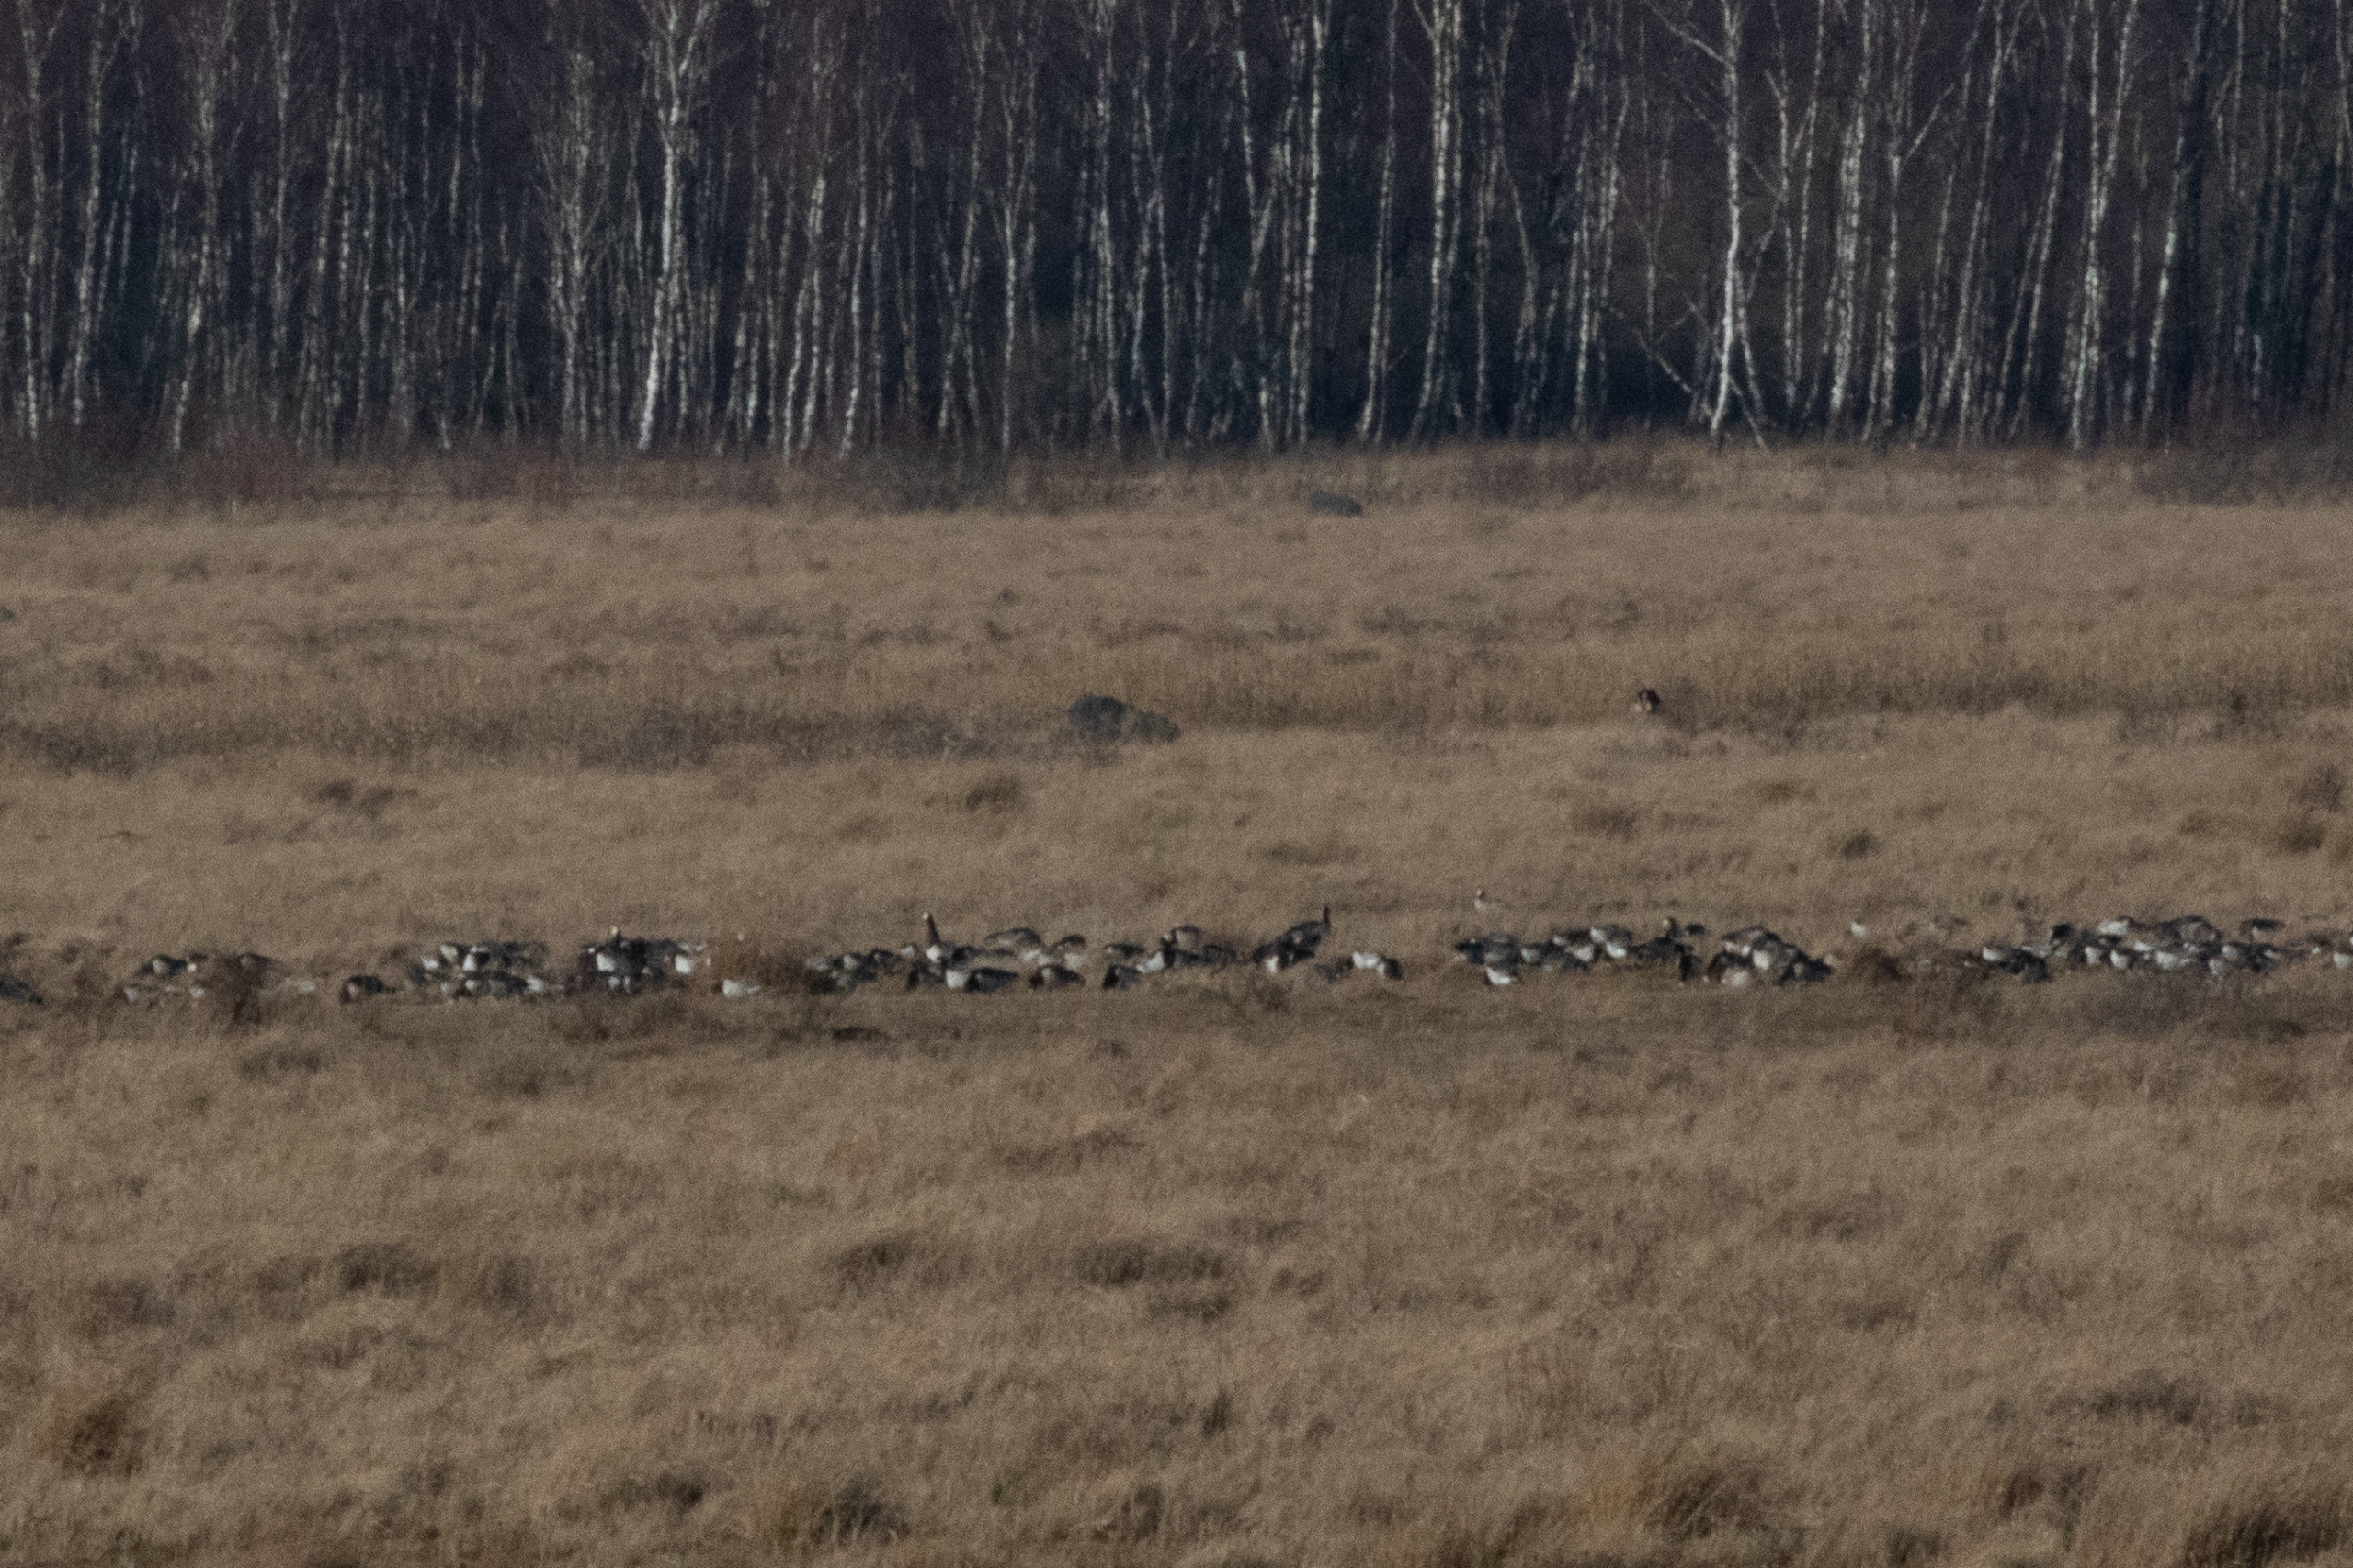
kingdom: Animalia
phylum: Chordata
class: Aves
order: Anseriformes
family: Anatidae
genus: Branta
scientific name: Branta leucopsis
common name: Bramgås
